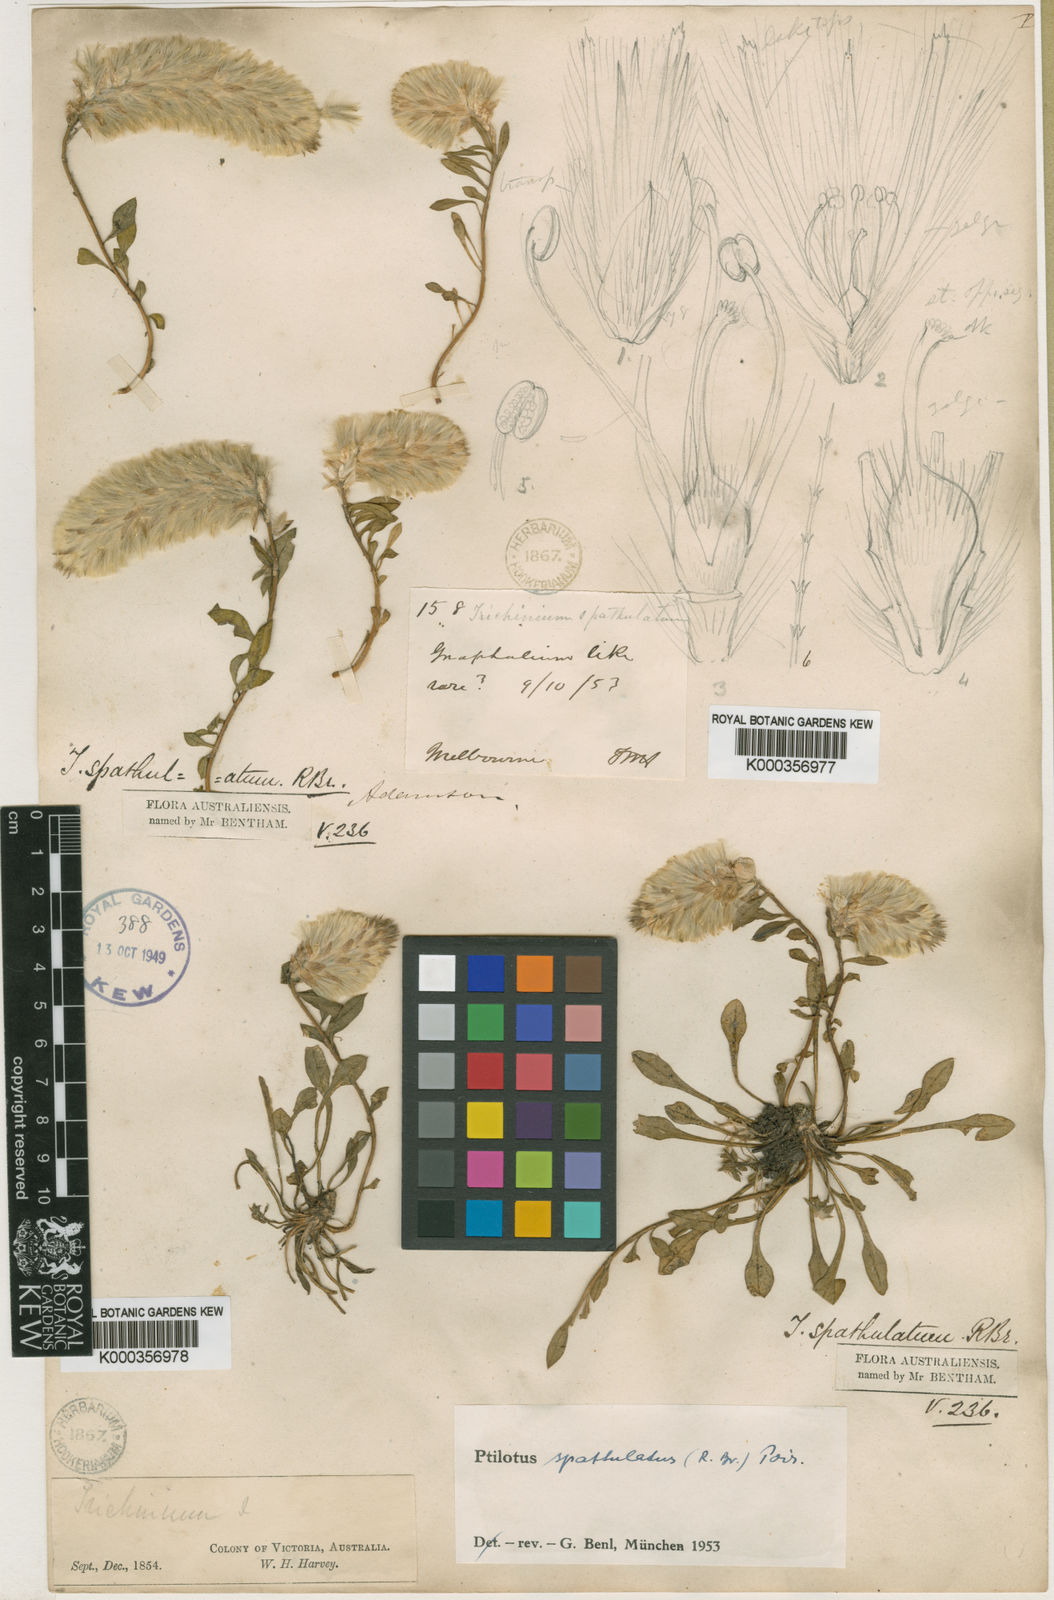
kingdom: Plantae
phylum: Tracheophyta
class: Magnoliopsida
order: Caryophyllales
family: Amaranthaceae
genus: Ptilotus
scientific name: Ptilotus spathulatus
